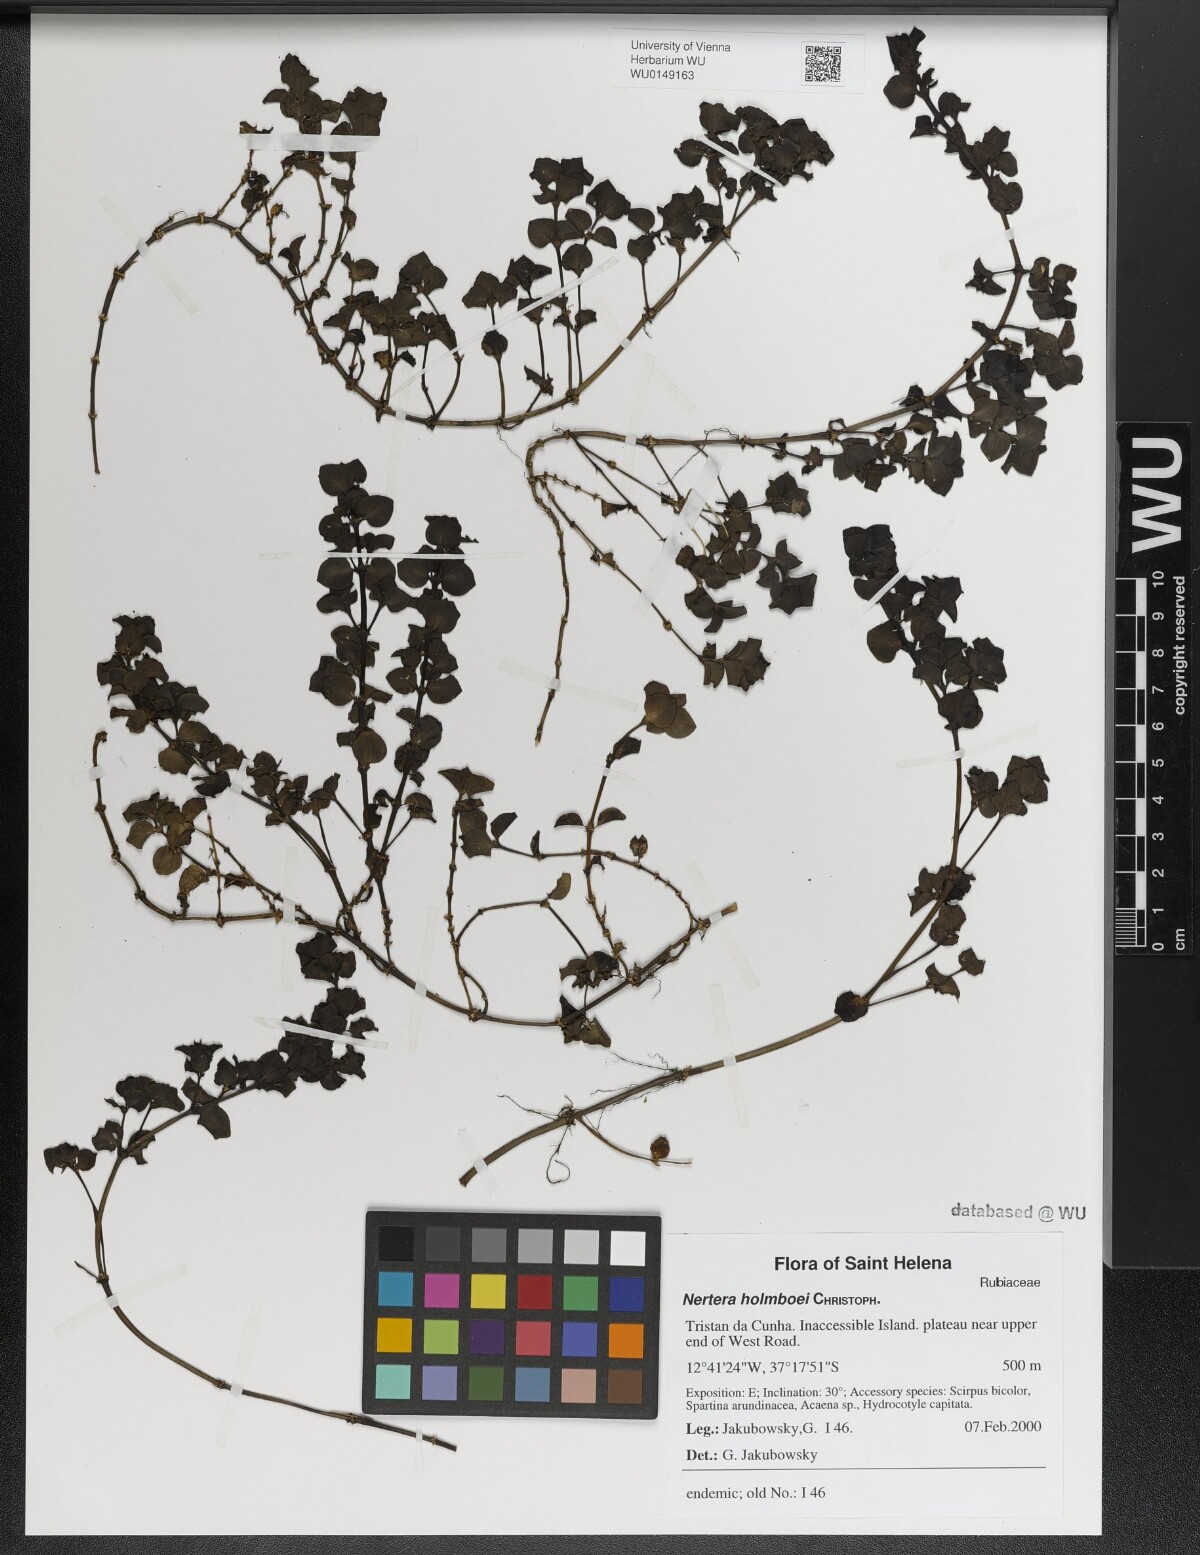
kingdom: Plantae
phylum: Tracheophyta
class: Magnoliopsida
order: Gentianales
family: Rubiaceae
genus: Nertera
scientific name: Nertera holmboei
